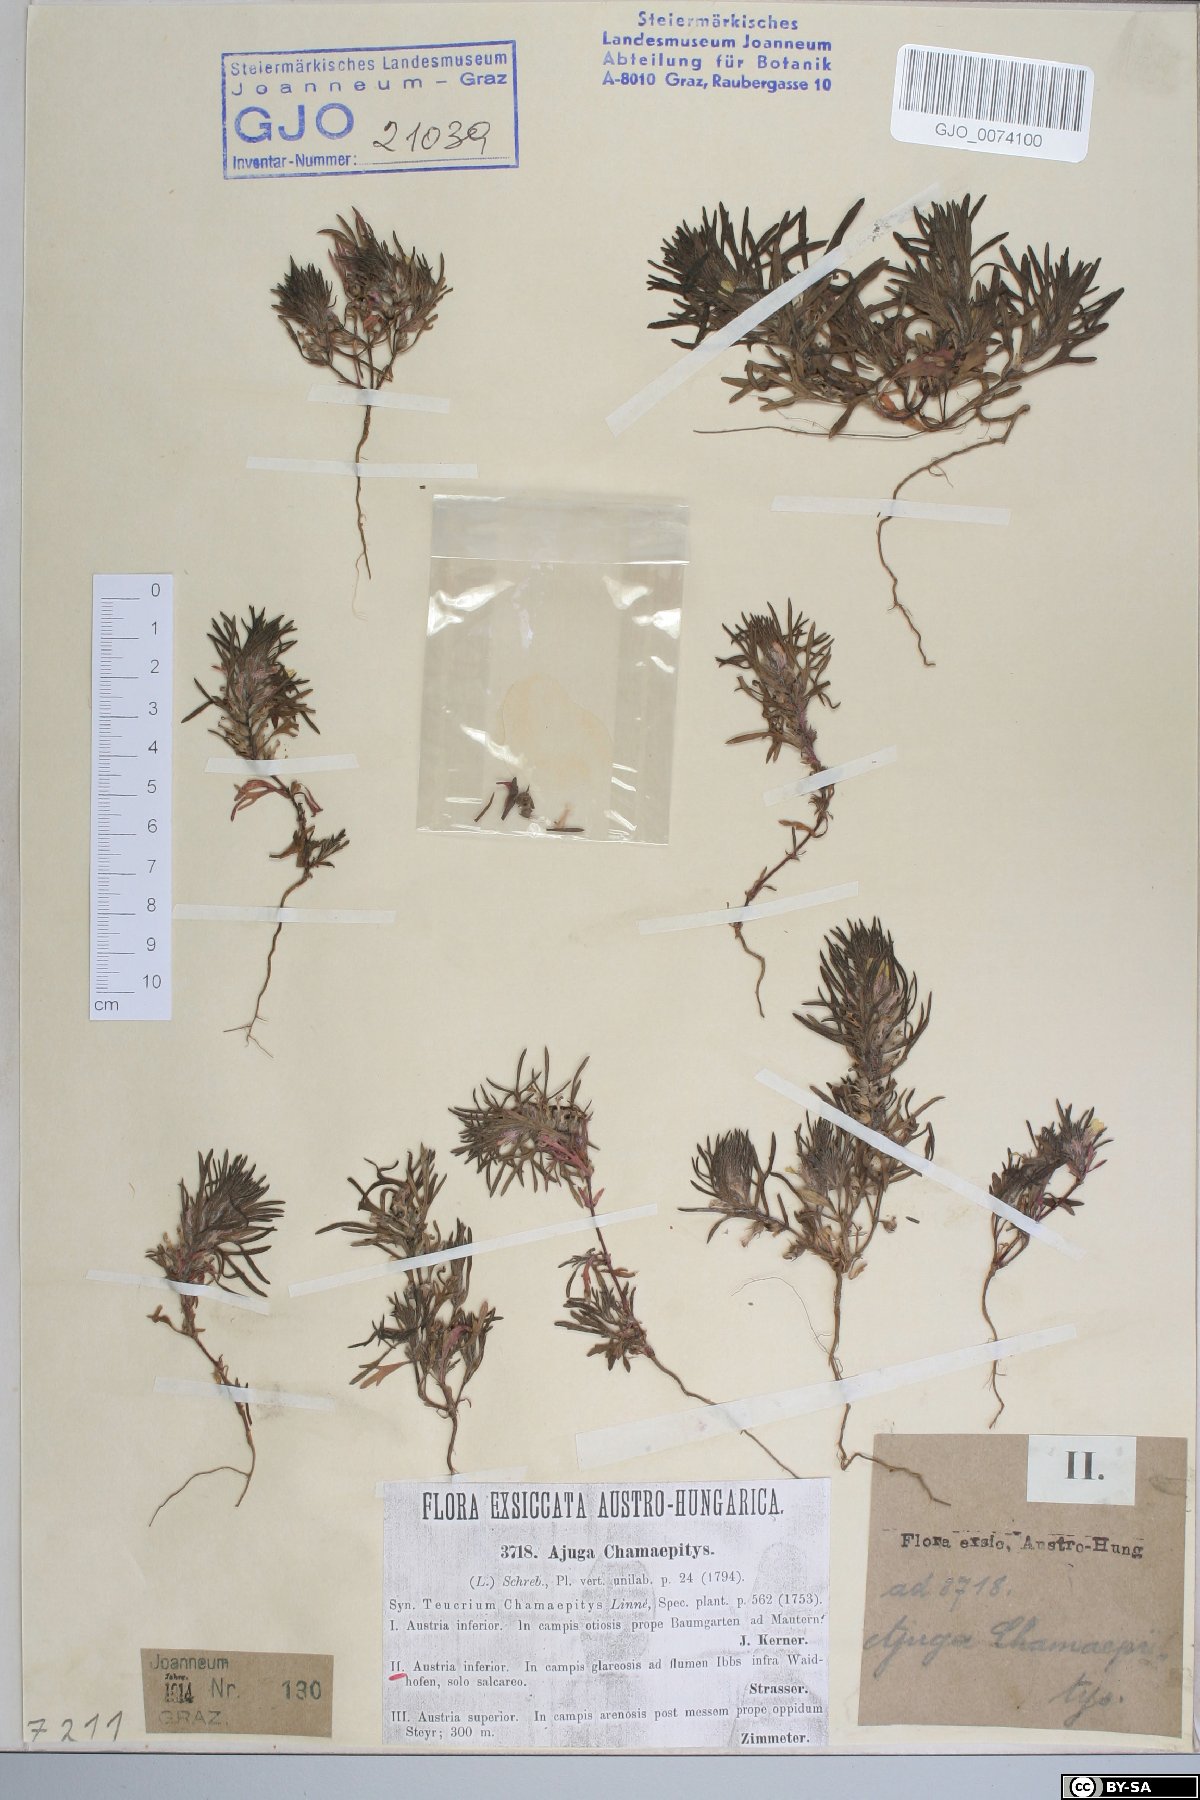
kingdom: Plantae
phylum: Tracheophyta
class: Magnoliopsida
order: Lamiales
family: Lamiaceae
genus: Ajuga
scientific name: Ajuga chamaepitys
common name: Ground-pine
